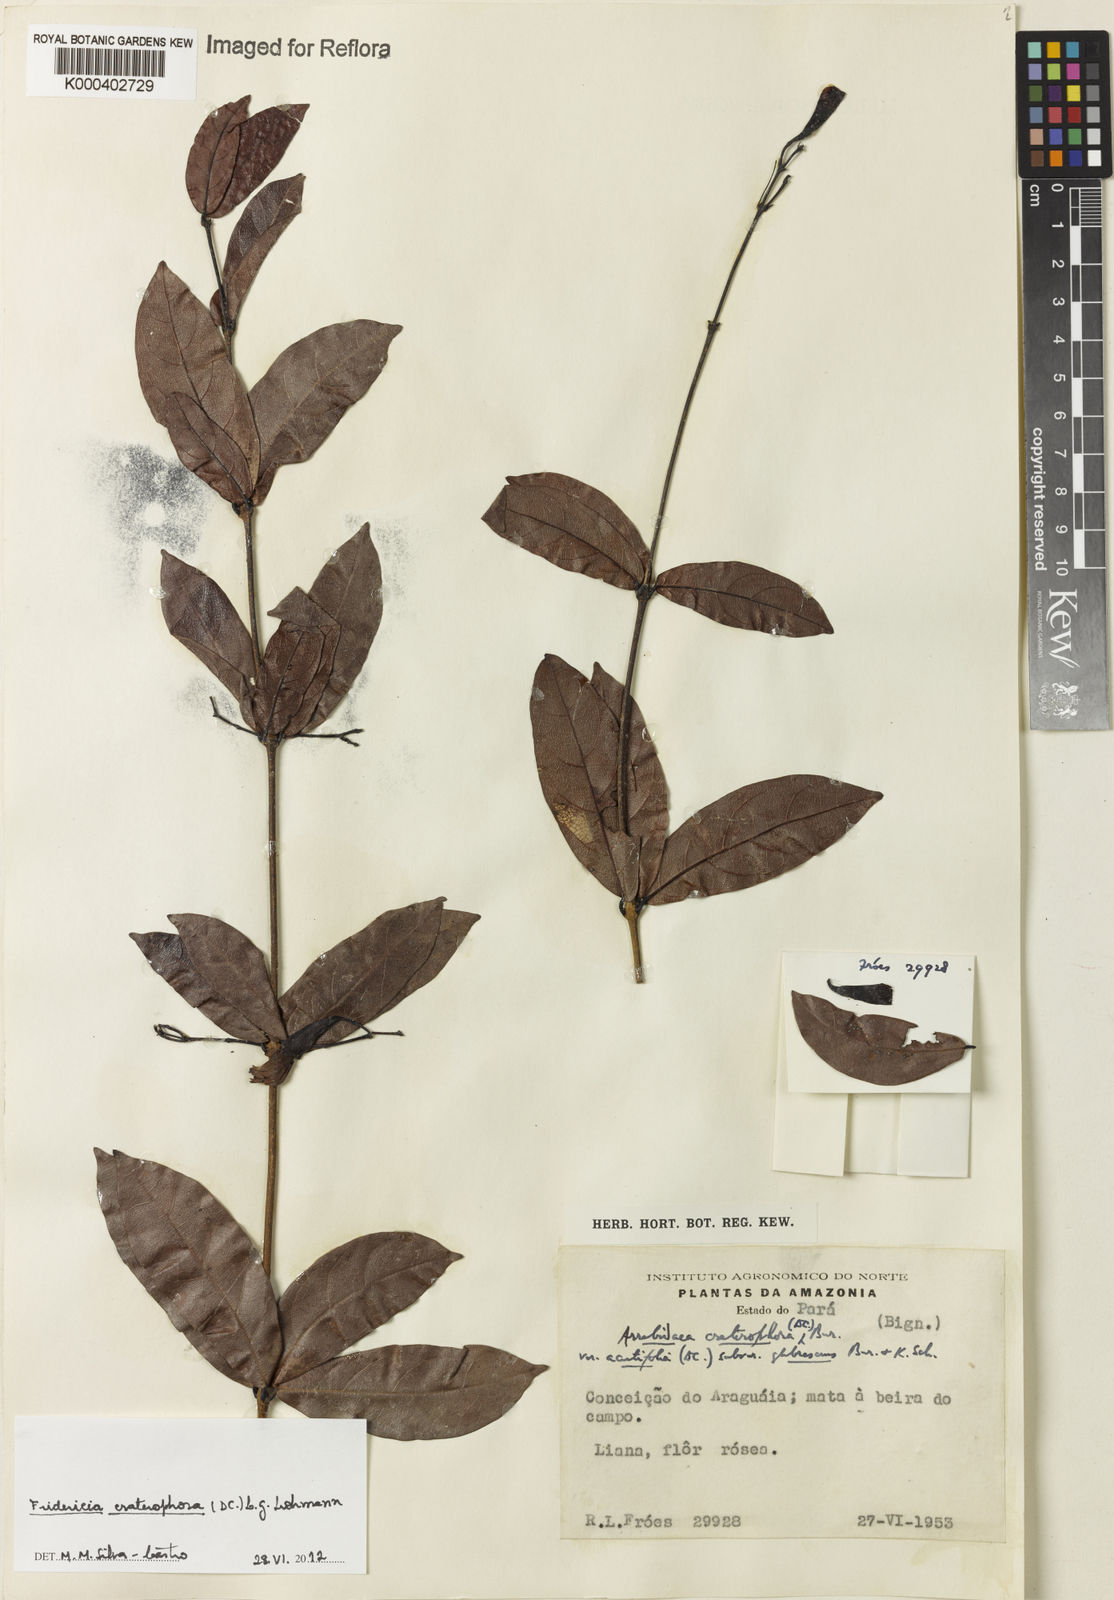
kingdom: Plantae
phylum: Tracheophyta
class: Magnoliopsida
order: Lamiales
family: Bignoniaceae
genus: Fridericia
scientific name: Fridericia craterophora
